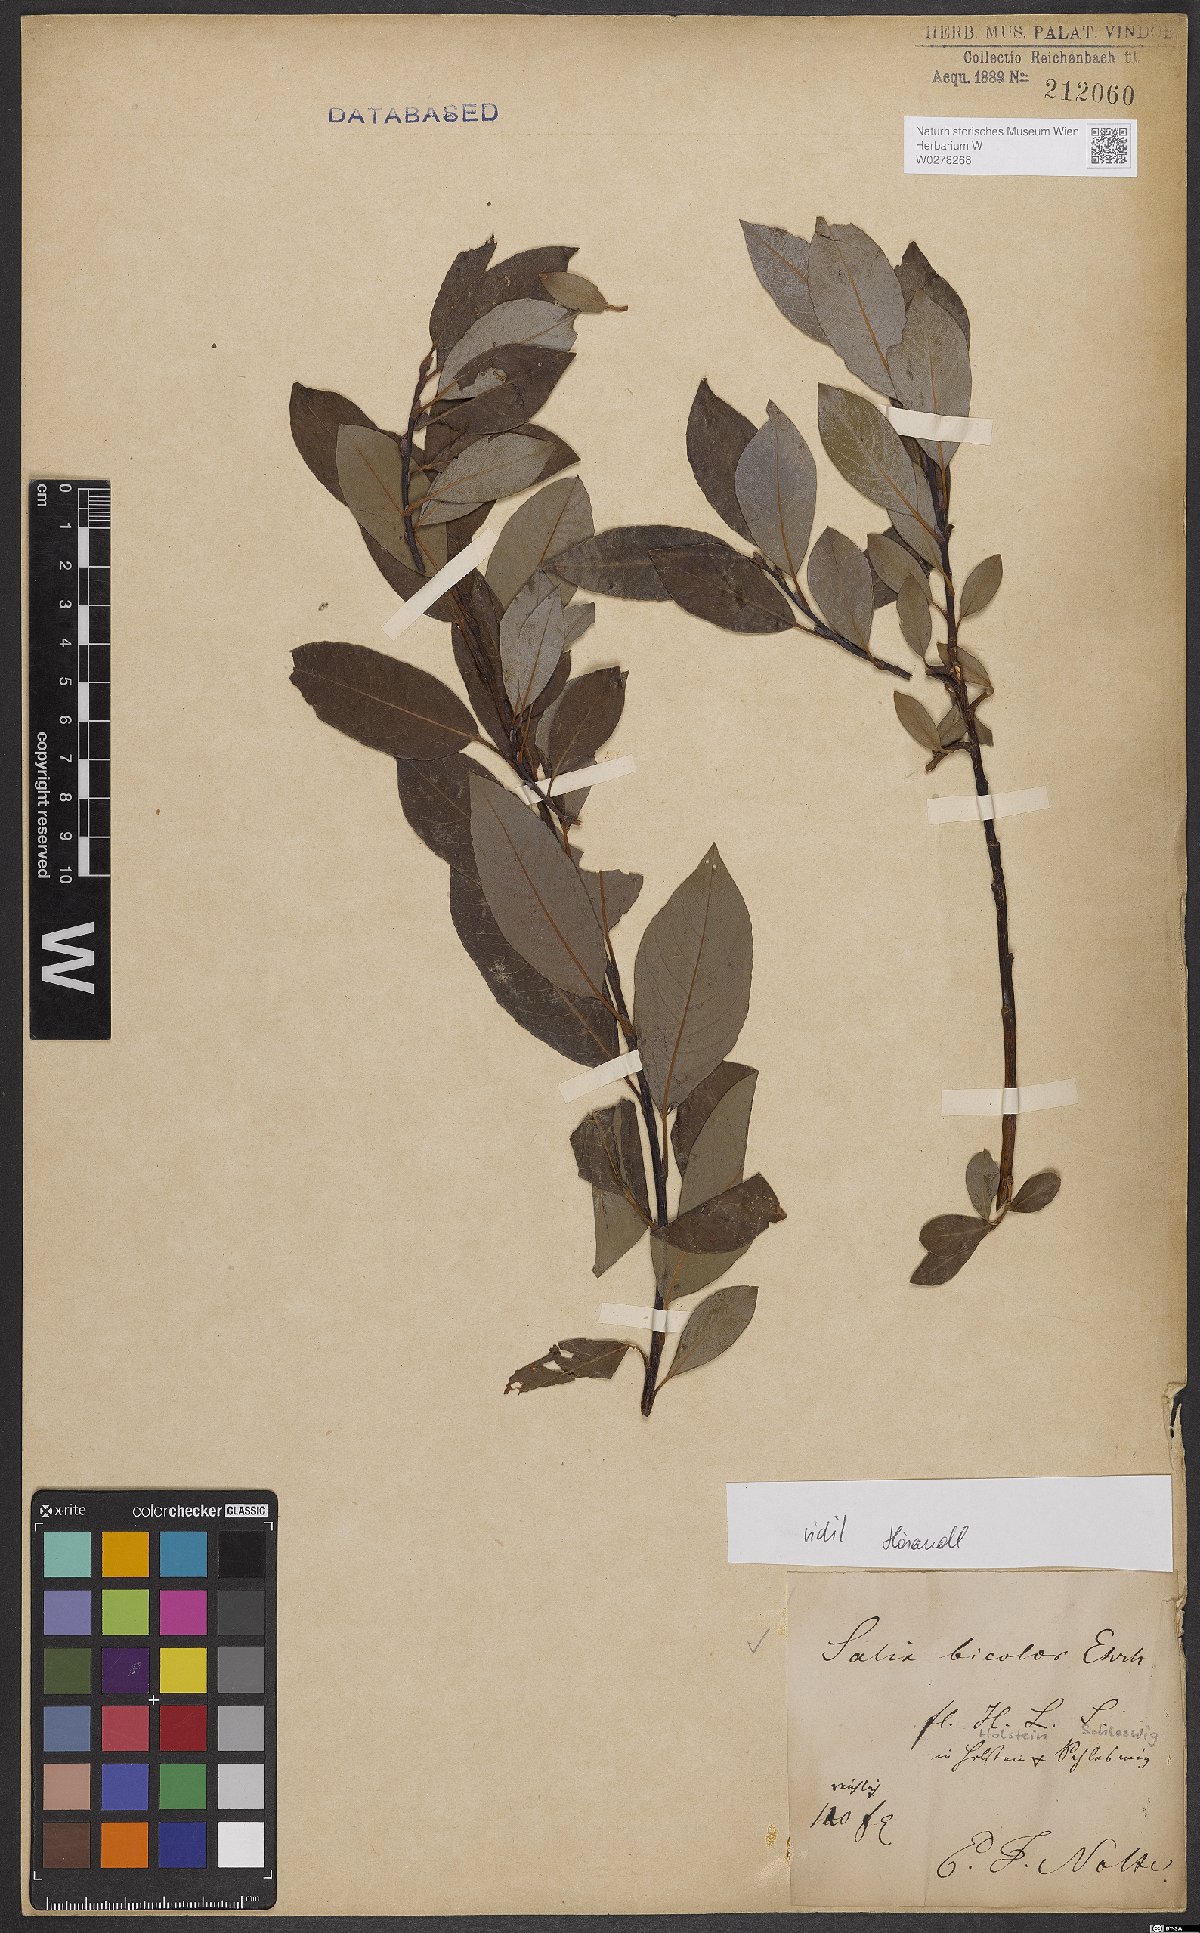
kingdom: Plantae
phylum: Tracheophyta
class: Magnoliopsida
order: Malpighiales
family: Salicaceae
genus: Salix
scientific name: Salix bicolor
